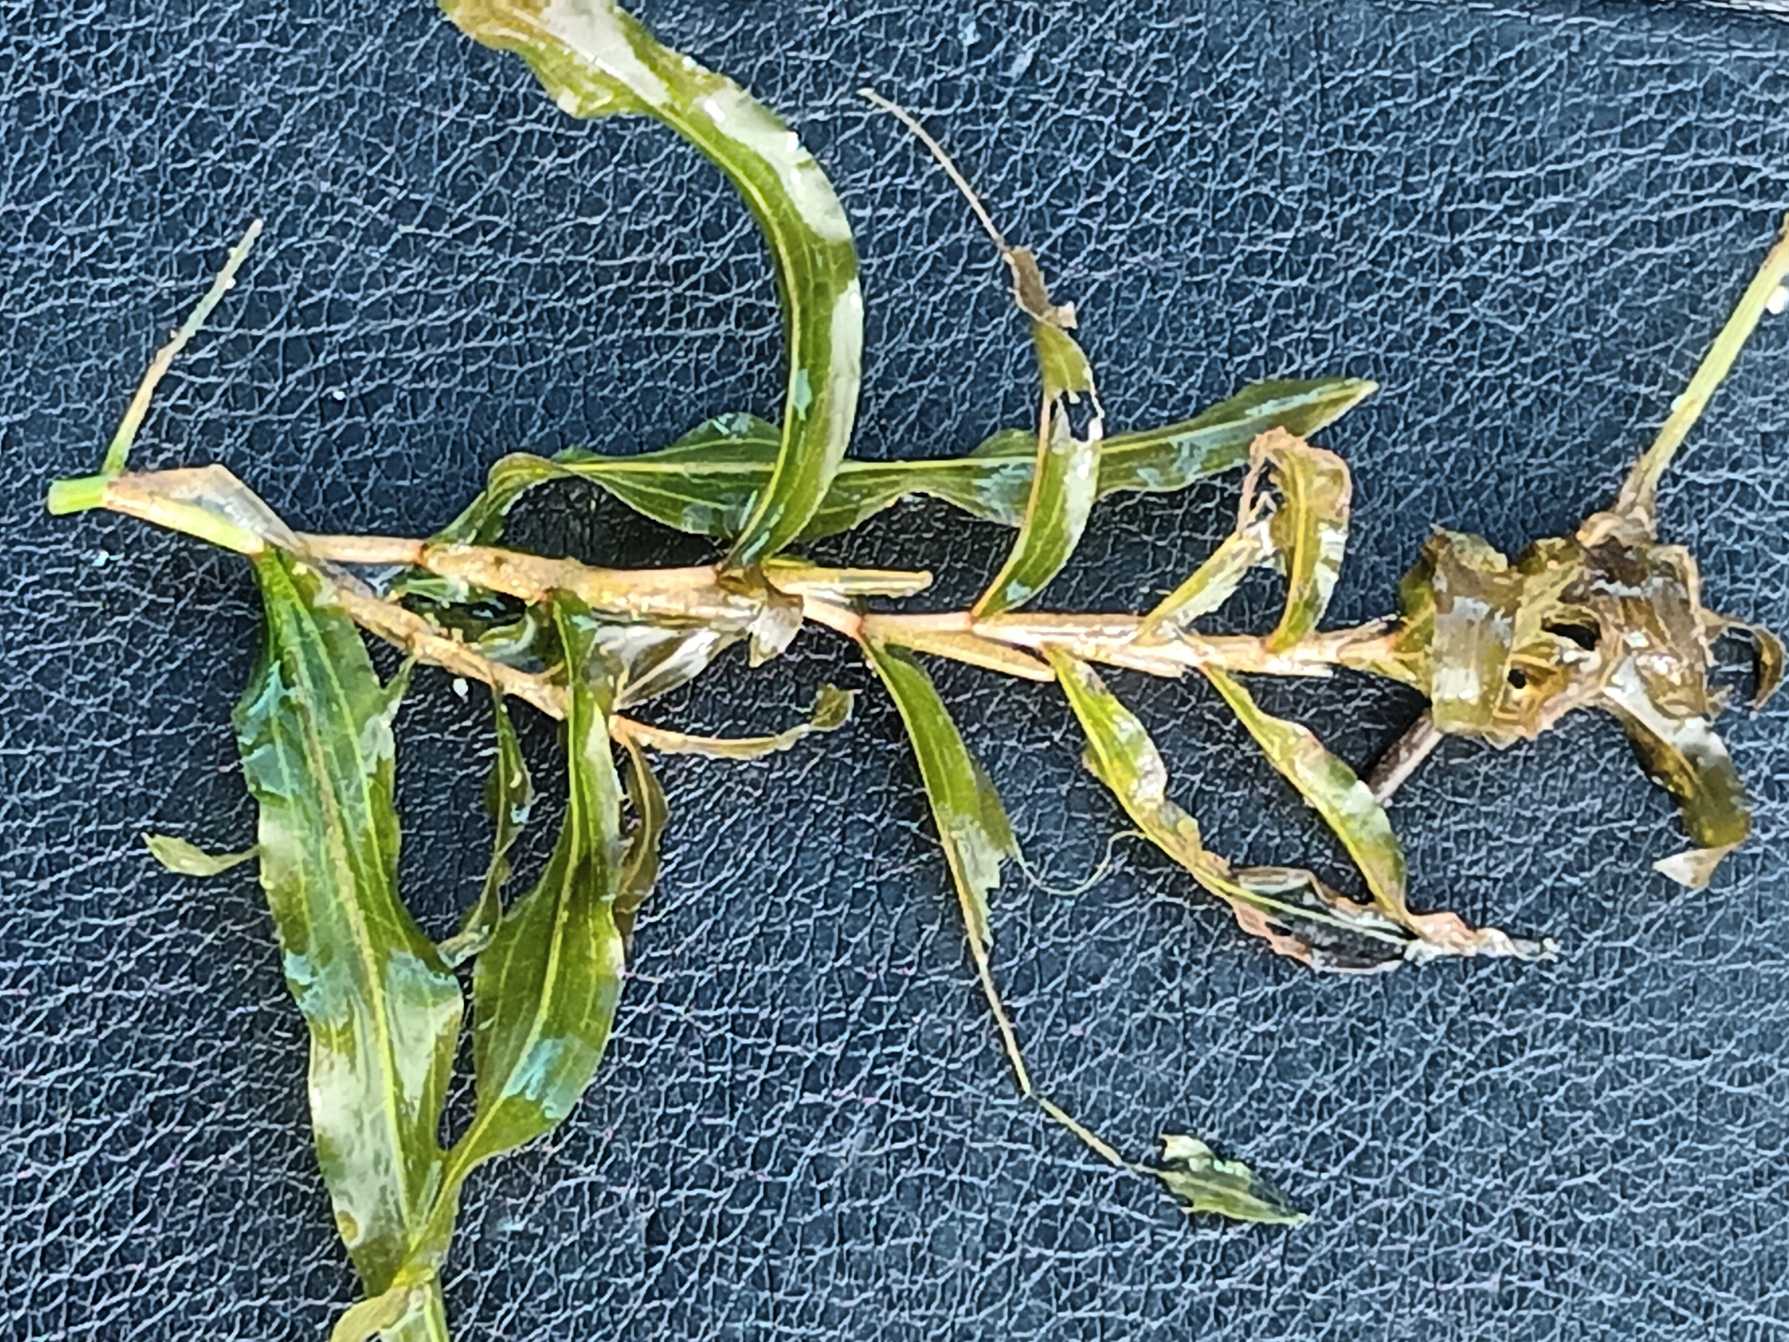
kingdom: Plantae
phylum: Tracheophyta
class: Liliopsida
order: Alismatales
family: Potamogetonaceae
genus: Potamogeton
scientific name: Potamogeton gramineus
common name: Græsbladet vandaks
